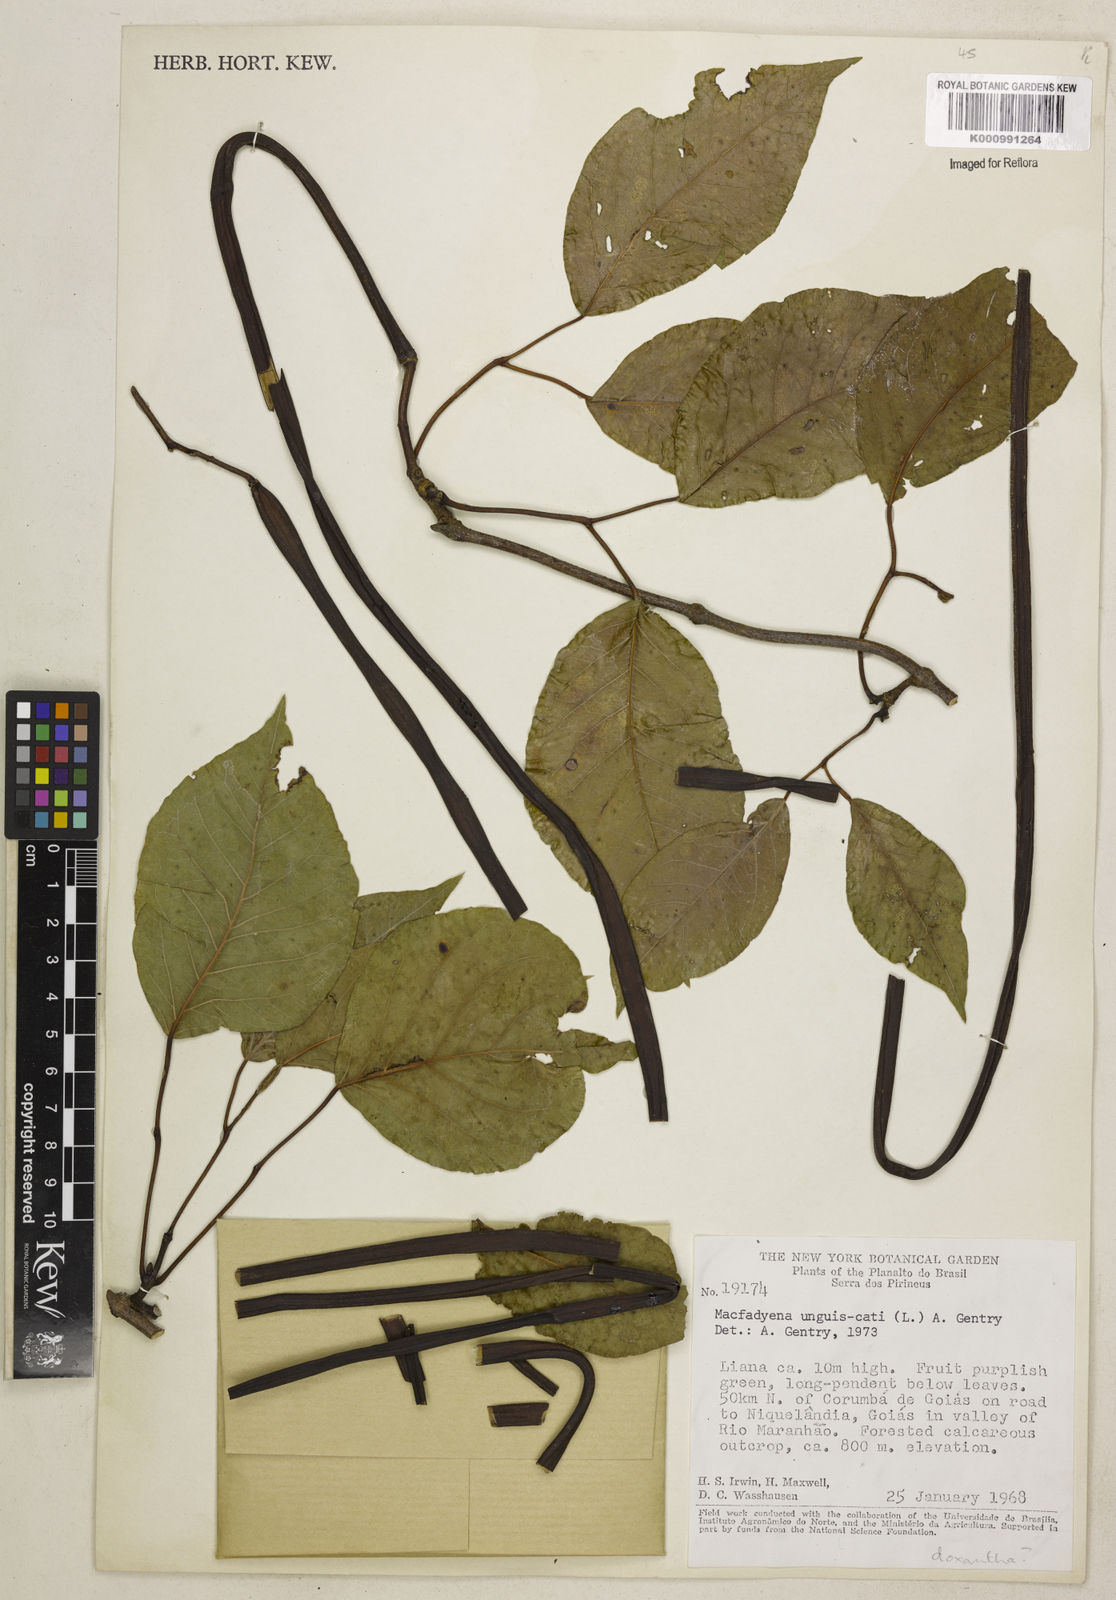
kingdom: Plantae
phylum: Tracheophyta
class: Magnoliopsida
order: Lamiales
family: Bignoniaceae
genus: Dolichandra
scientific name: Dolichandra unguis-cati
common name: Catclaw vine
